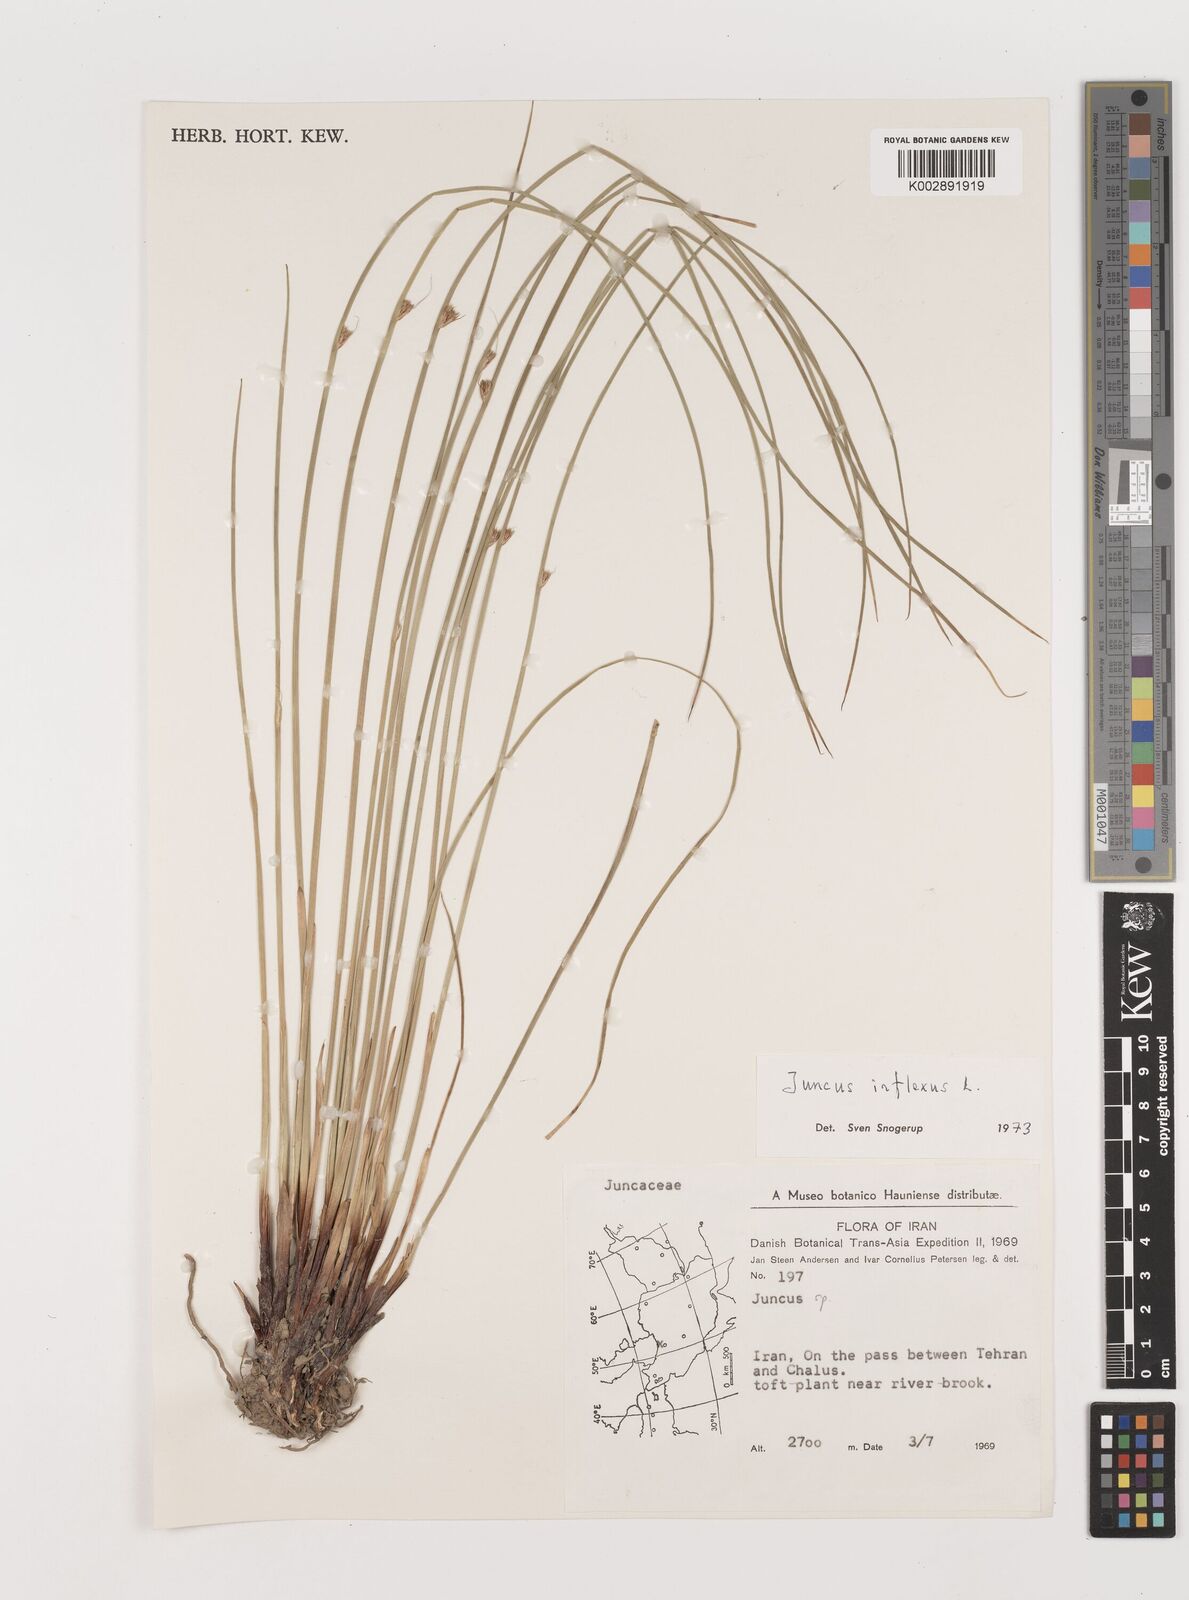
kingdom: Plantae
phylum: Tracheophyta
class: Liliopsida
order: Poales
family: Juncaceae
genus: Juncus
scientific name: Juncus
